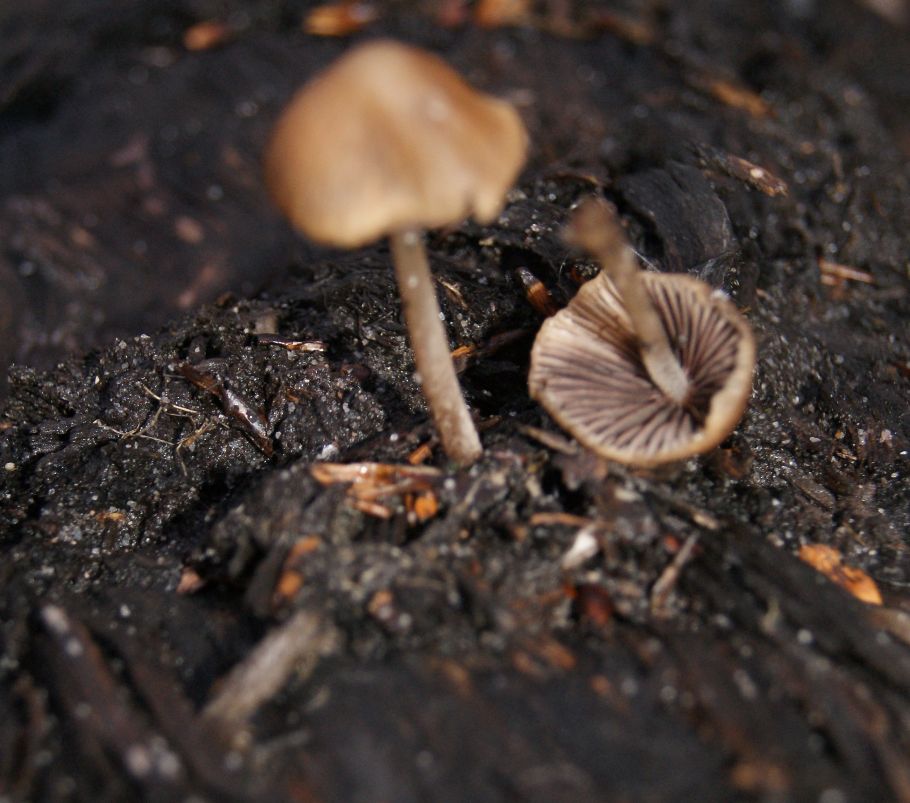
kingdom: Fungi
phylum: Basidiomycota
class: Agaricomycetes
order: Agaricales
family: Psathyrellaceae
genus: Psathyrella
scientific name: Psathyrella corrugis
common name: rødægget mørkhat
